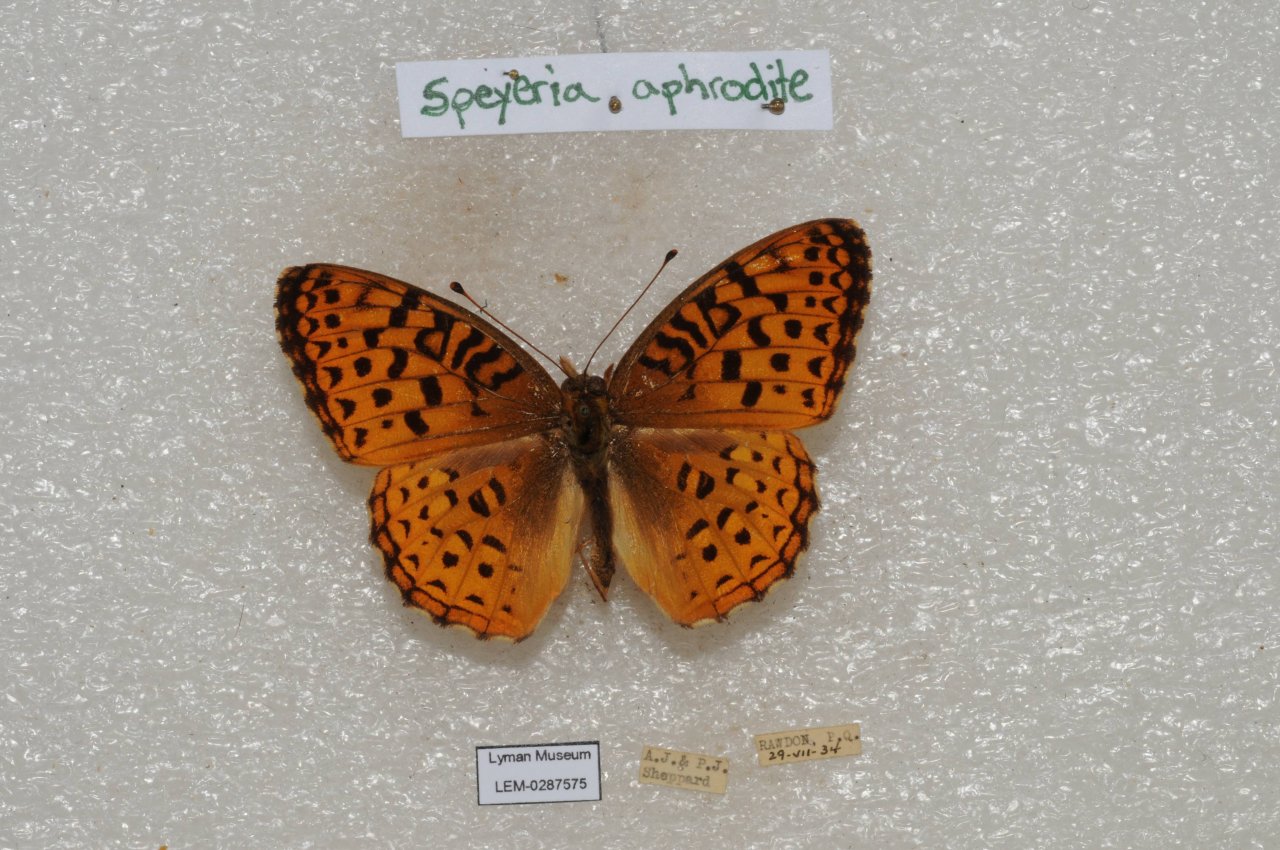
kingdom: Animalia
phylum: Arthropoda
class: Insecta
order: Lepidoptera
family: Nymphalidae
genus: Speyeria
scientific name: Speyeria aphrodite
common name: Aphrodite Fritillary
